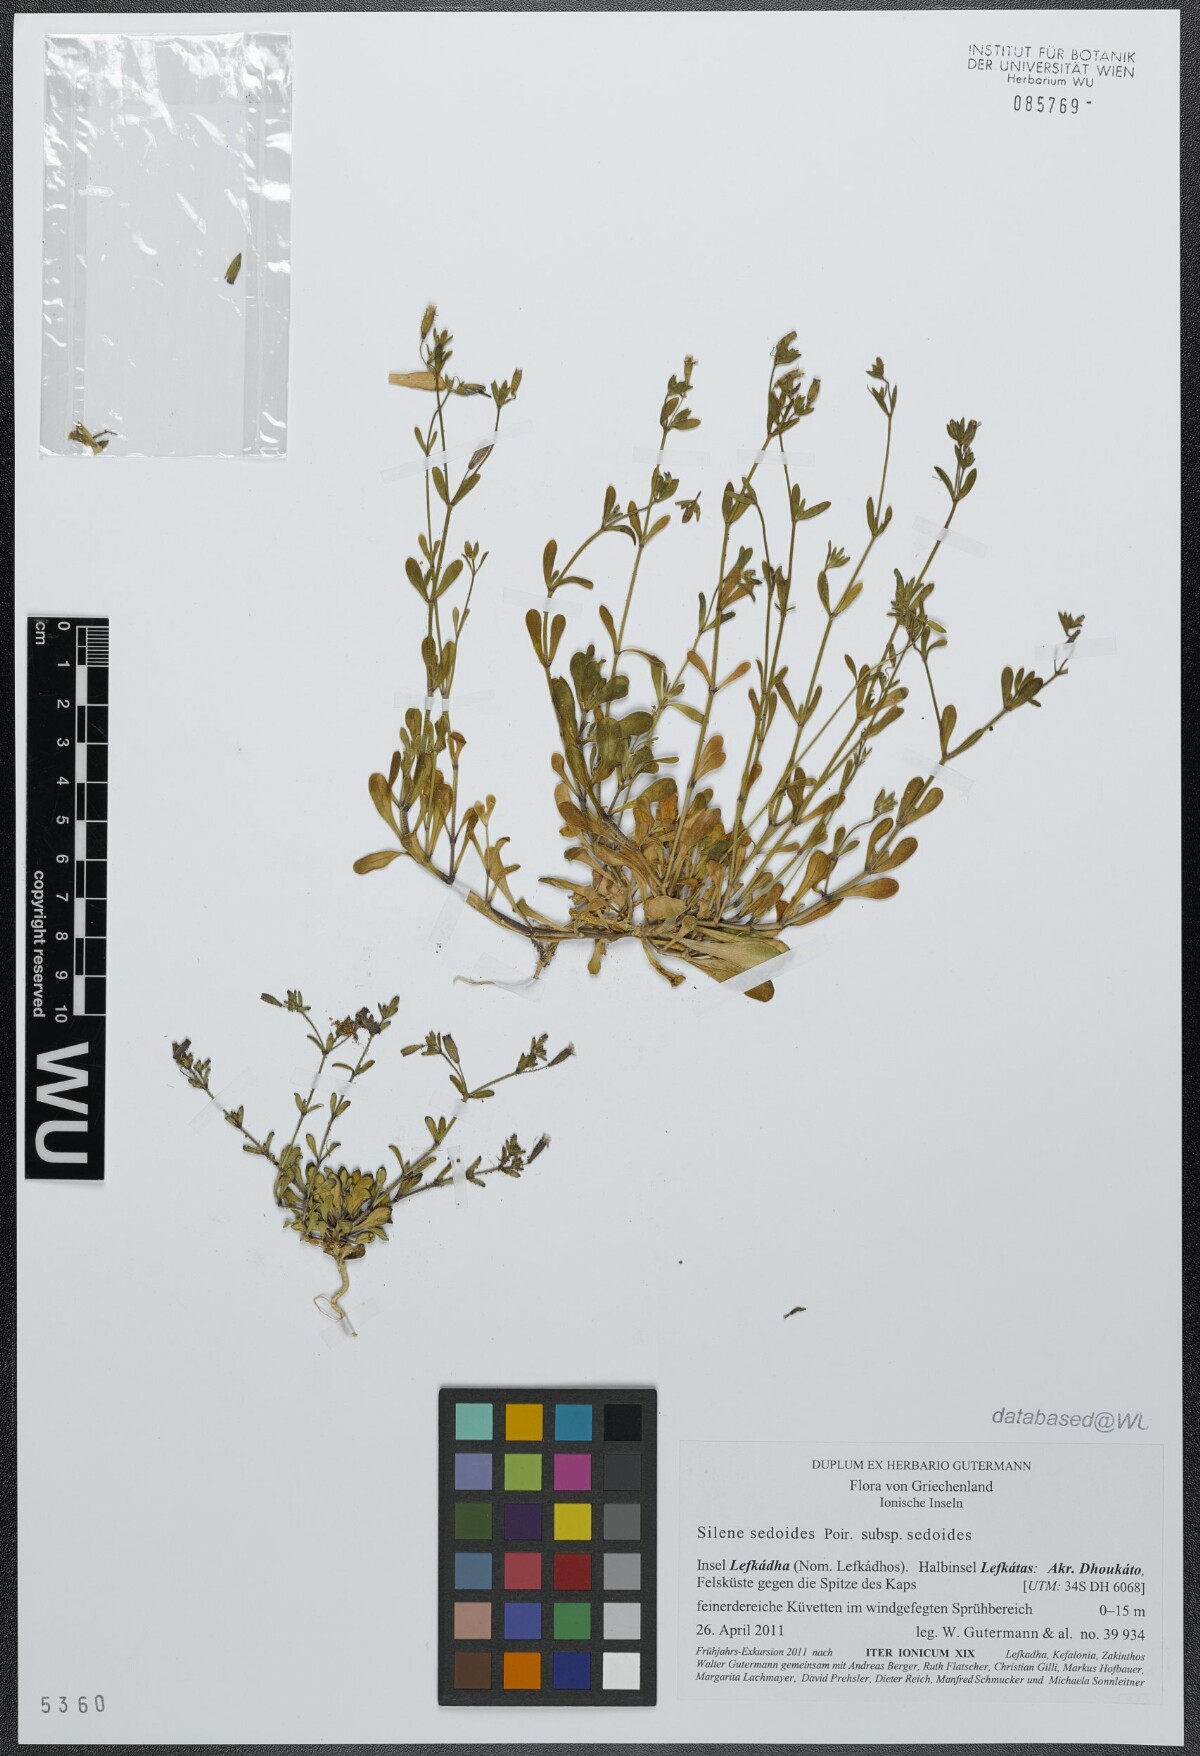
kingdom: Plantae
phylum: Tracheophyta
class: Magnoliopsida
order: Caryophyllales
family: Caryophyllaceae
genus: Silene
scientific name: Silene sedoides
